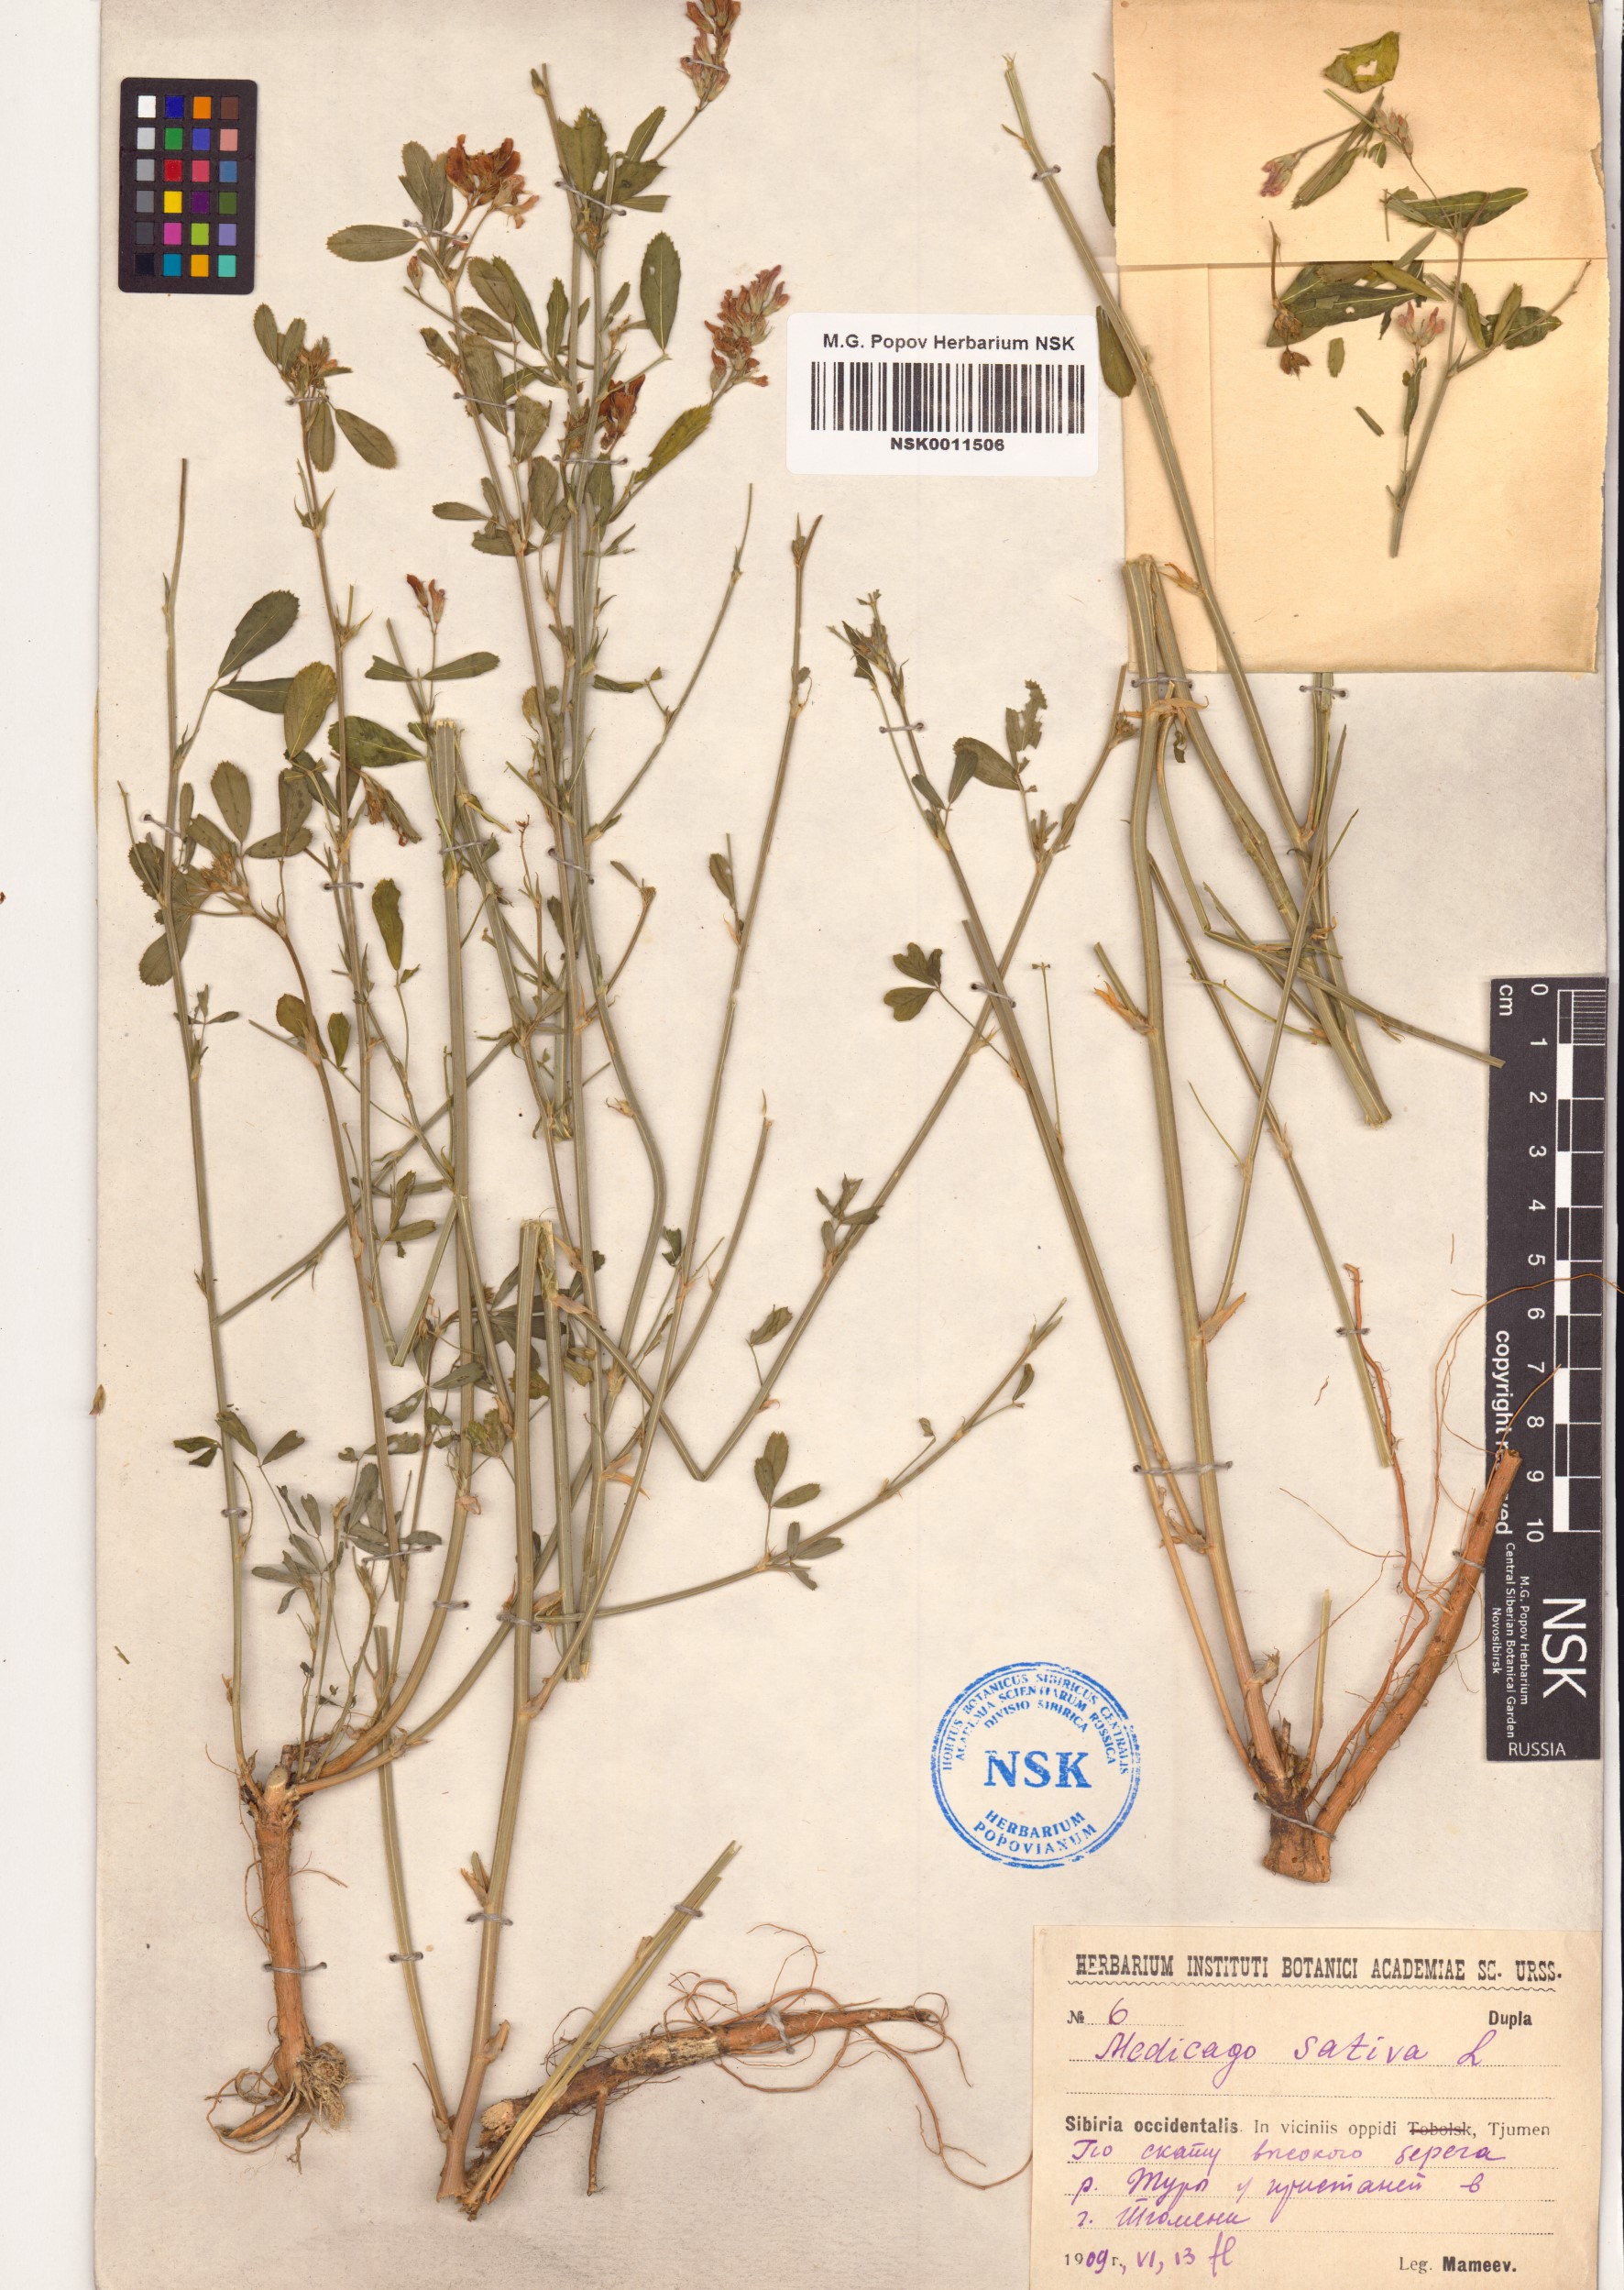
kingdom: Plantae
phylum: Tracheophyta
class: Magnoliopsida
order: Fabales
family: Fabaceae
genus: Medicago
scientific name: Medicago sativa
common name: Alfalfa
